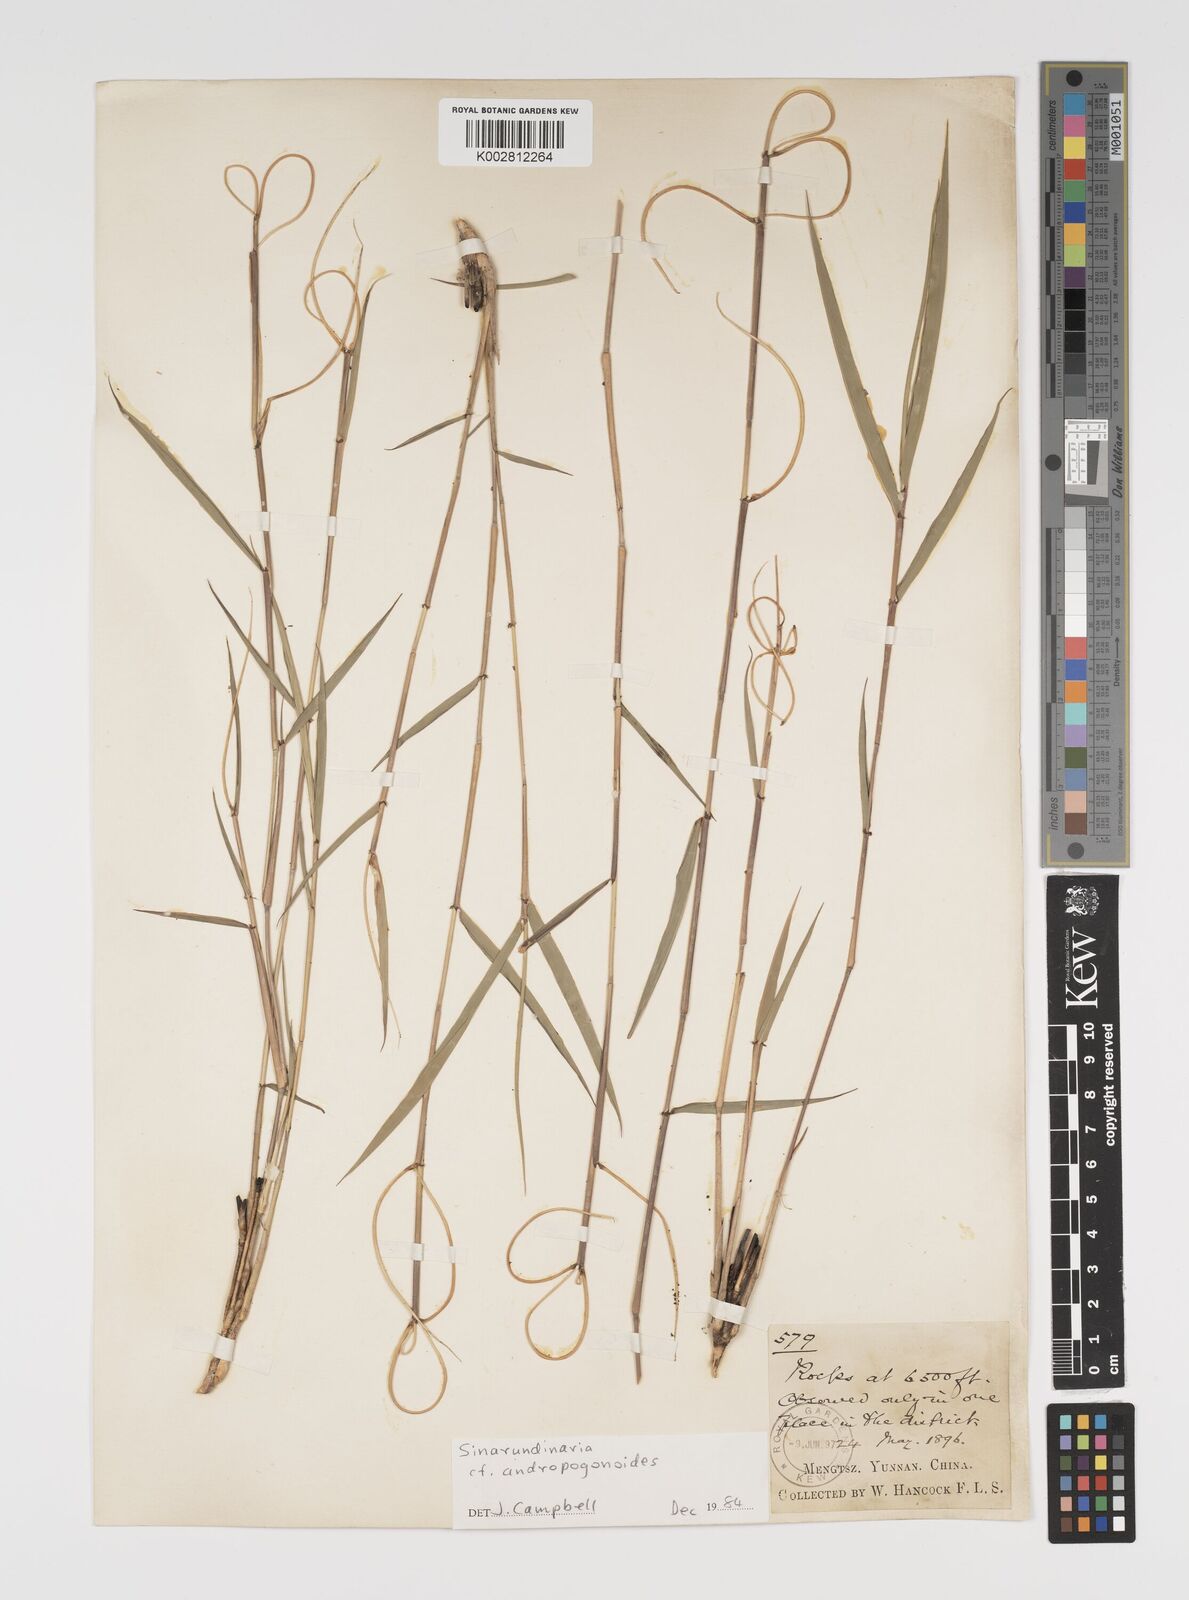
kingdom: Plantae
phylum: Tracheophyta
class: Liliopsida
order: Poales
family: Poaceae
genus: Yushania
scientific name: Yushania andropogonoides
